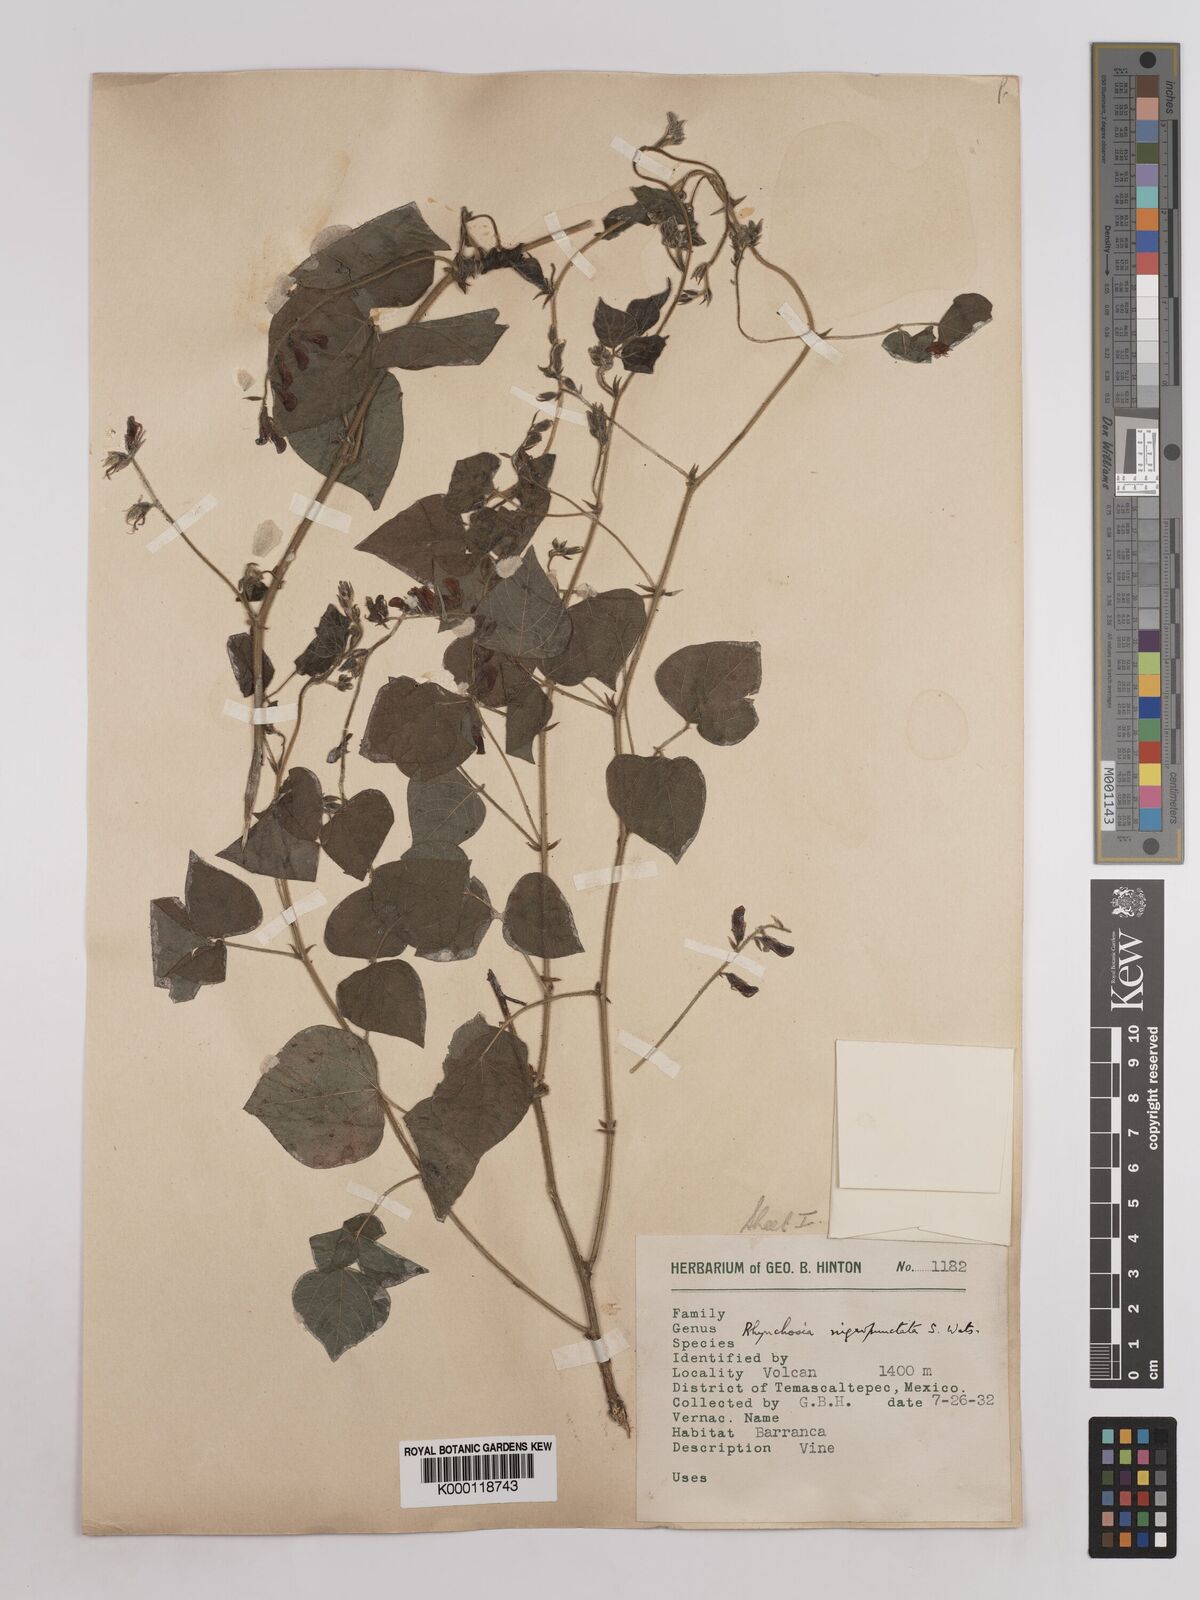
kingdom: Plantae
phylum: Tracheophyta
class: Magnoliopsida
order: Fabales
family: Fabaceae
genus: Rhynchosia
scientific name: Rhynchosia edulis
